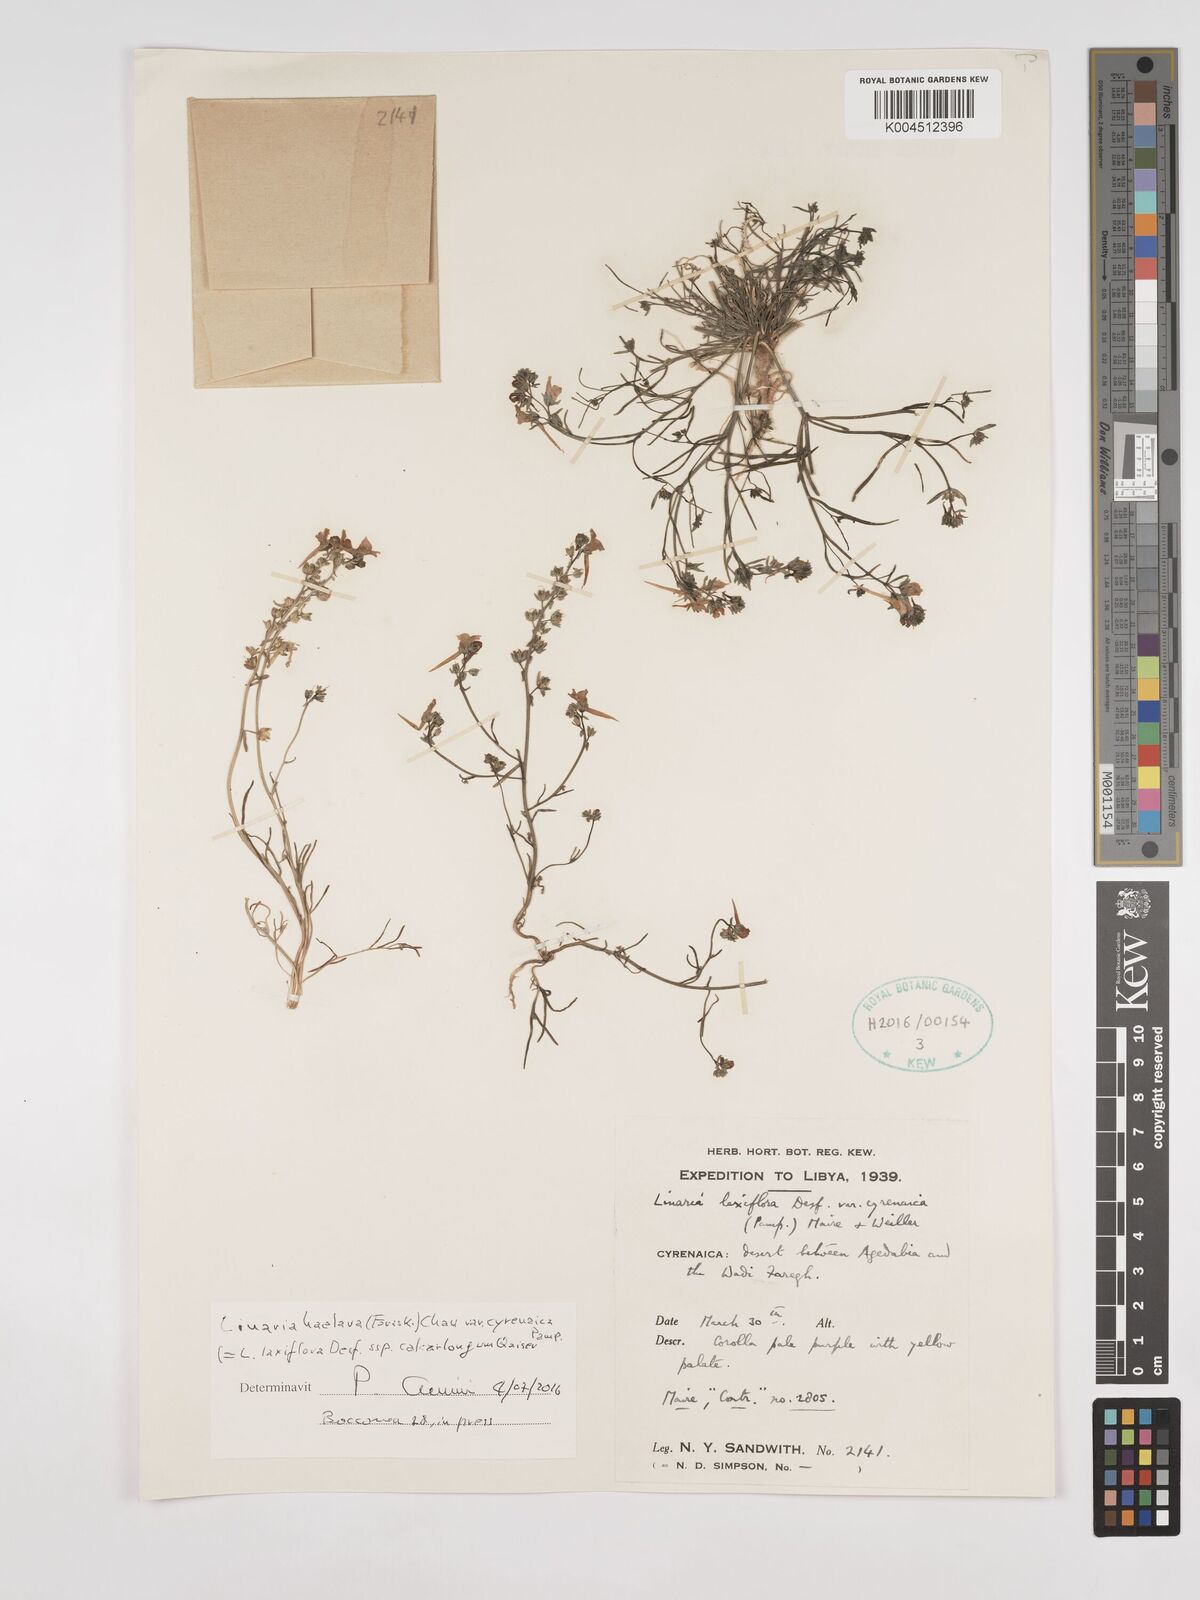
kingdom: Plantae
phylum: Tracheophyta
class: Magnoliopsida
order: Lamiales
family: Plantaginaceae
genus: Linaria
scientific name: Linaria haelava
